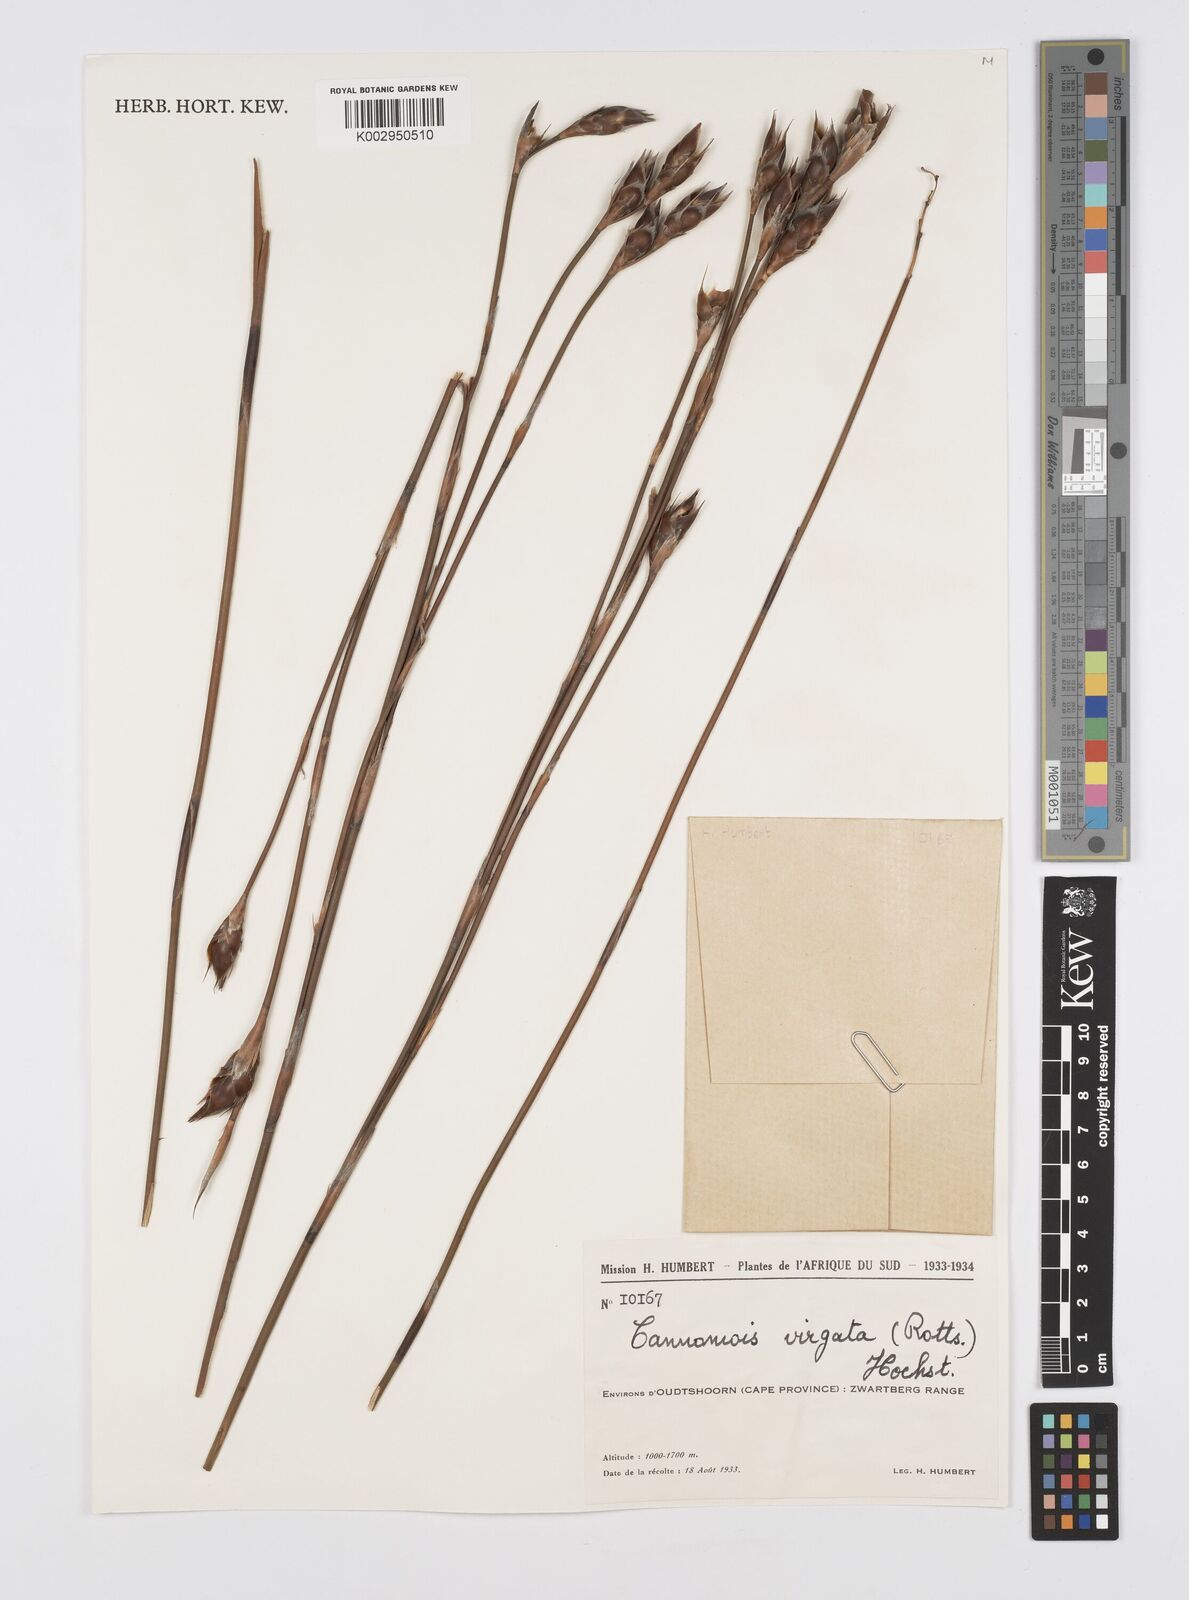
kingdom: Plantae
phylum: Tracheophyta
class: Liliopsida
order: Poales
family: Restionaceae
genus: Rhodocoma
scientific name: Rhodocoma gigantea
